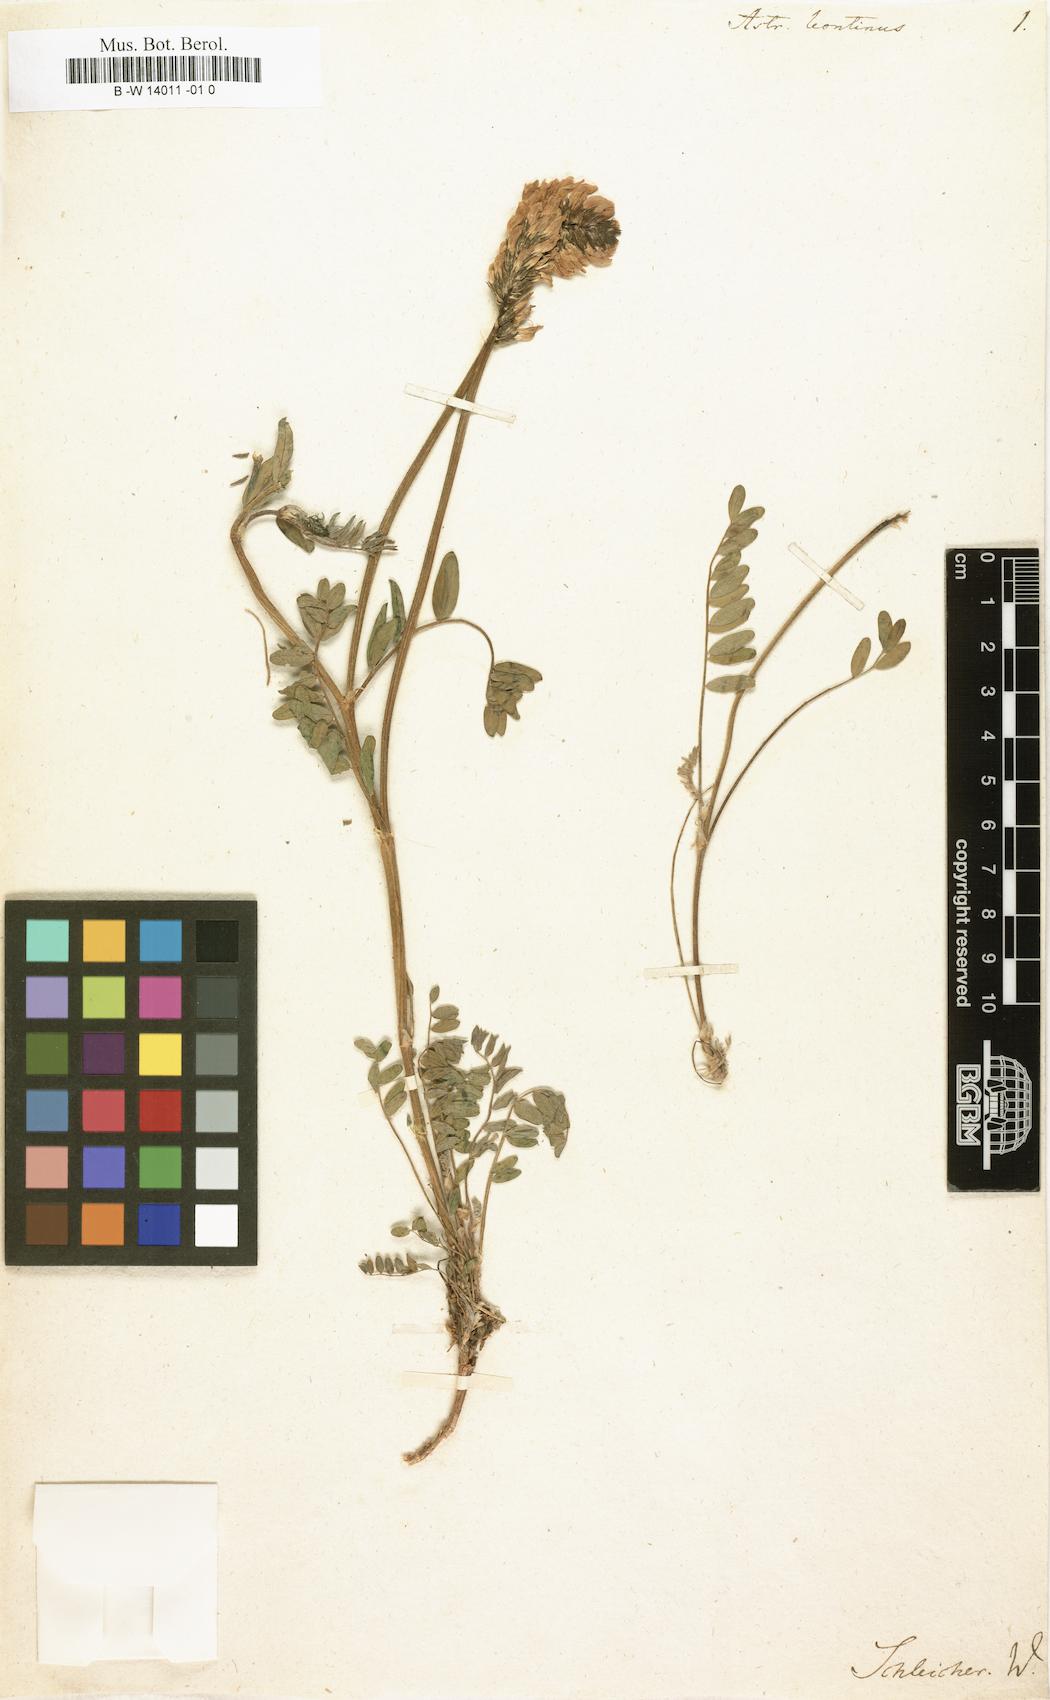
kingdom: Plantae
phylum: Tracheophyta
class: Magnoliopsida
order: Fabales
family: Fabaceae
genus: Astragalus
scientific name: Astragalus leontinus
